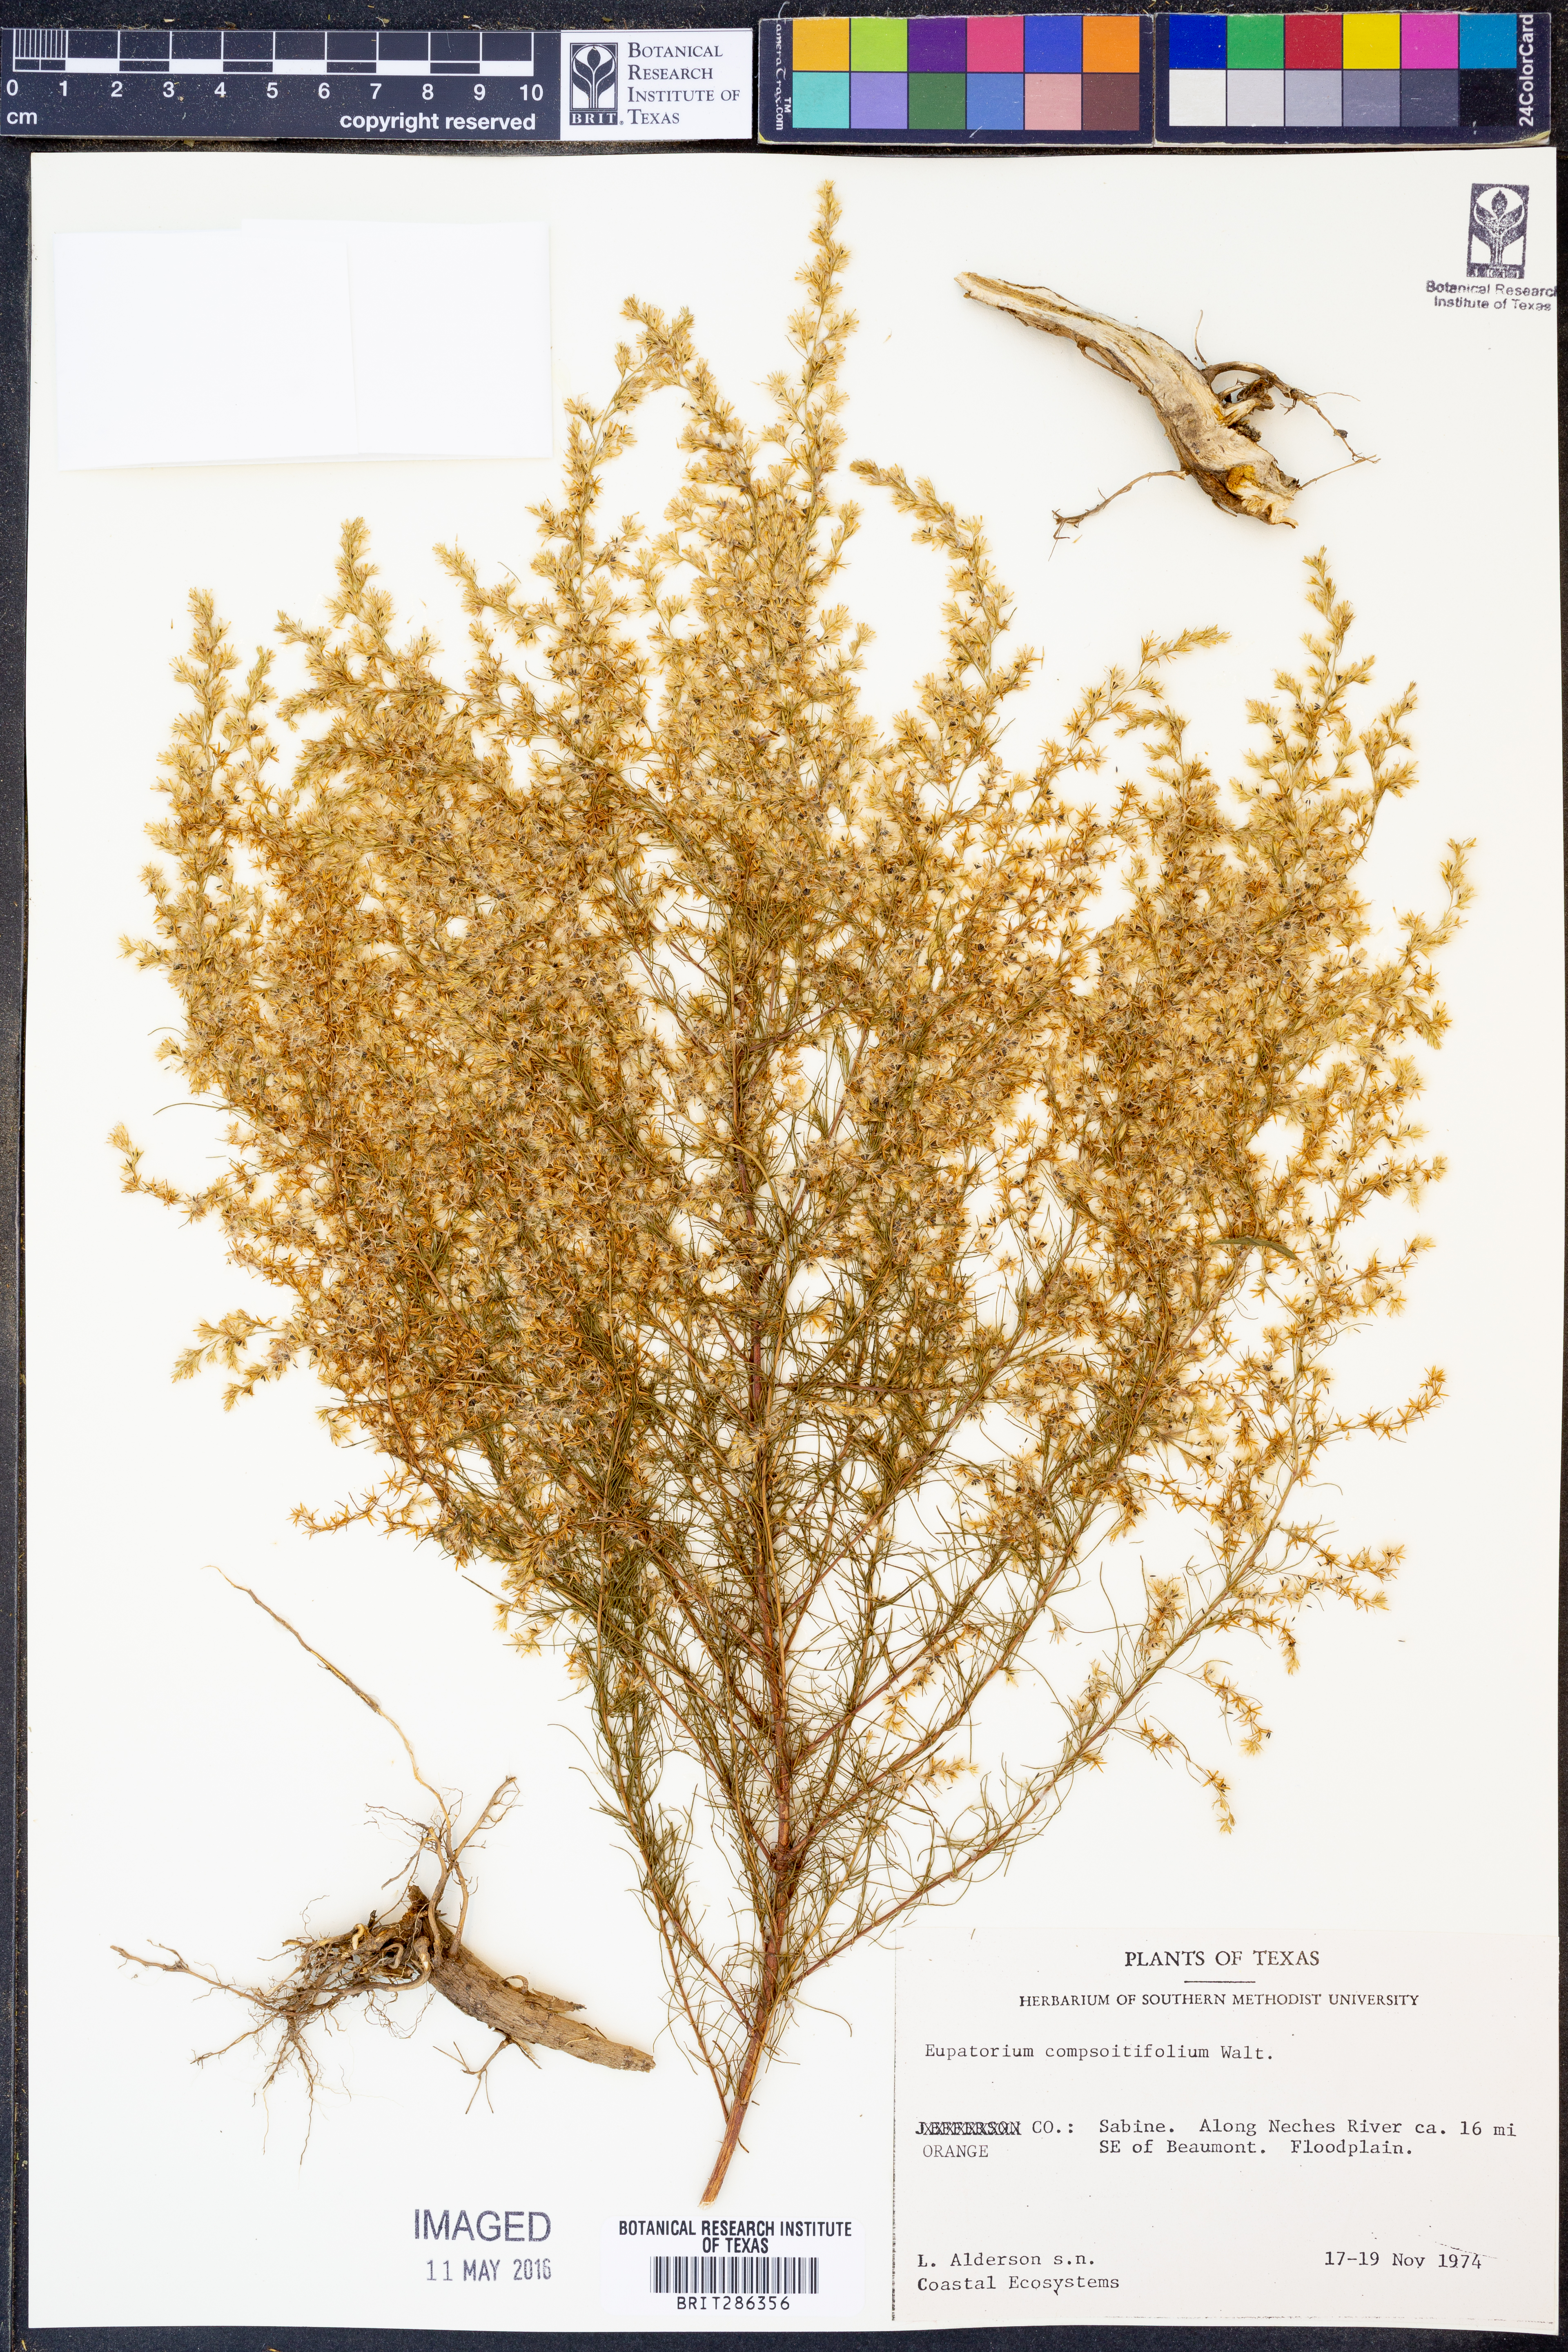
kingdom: Plantae
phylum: Tracheophyta
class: Magnoliopsida
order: Asterales
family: Asteraceae
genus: Eupatorium
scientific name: Eupatorium compositifolium
